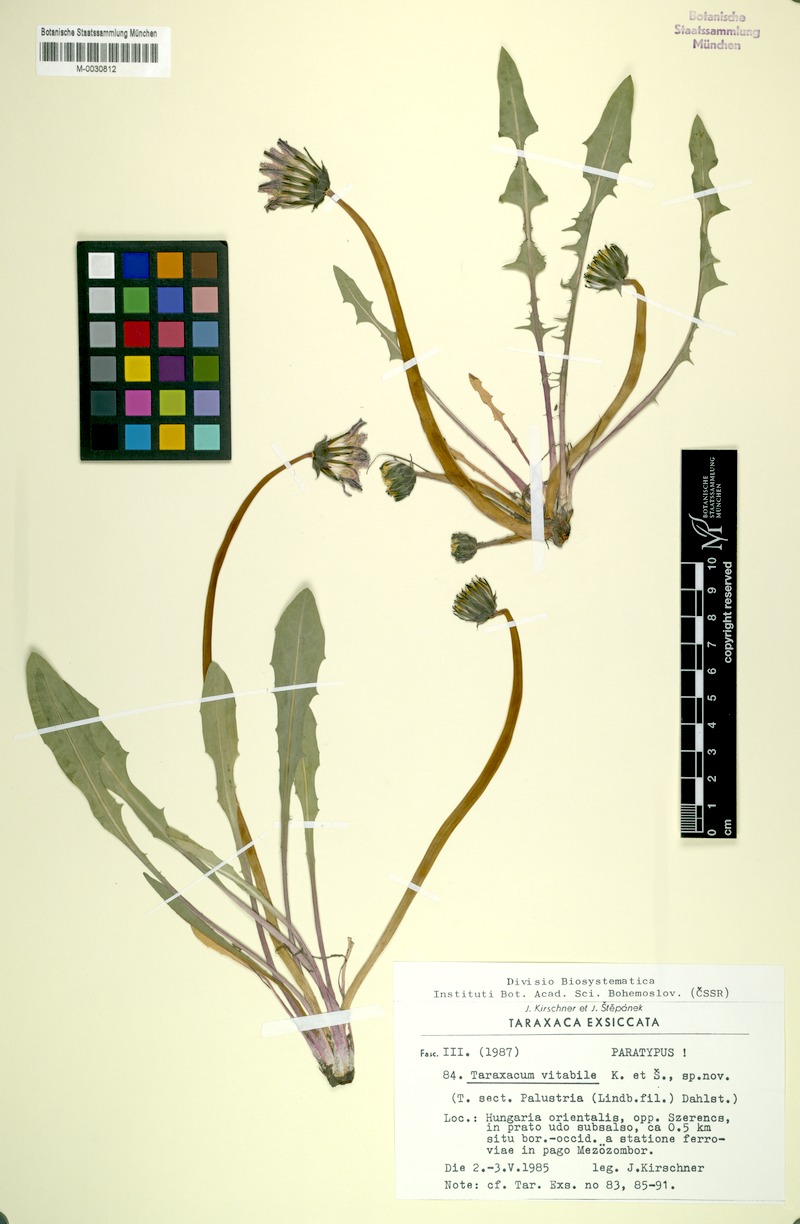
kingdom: Plantae
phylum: Tracheophyta
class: Magnoliopsida
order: Asterales
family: Asteraceae
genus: Taraxacum
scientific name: Taraxacum vindobonense
